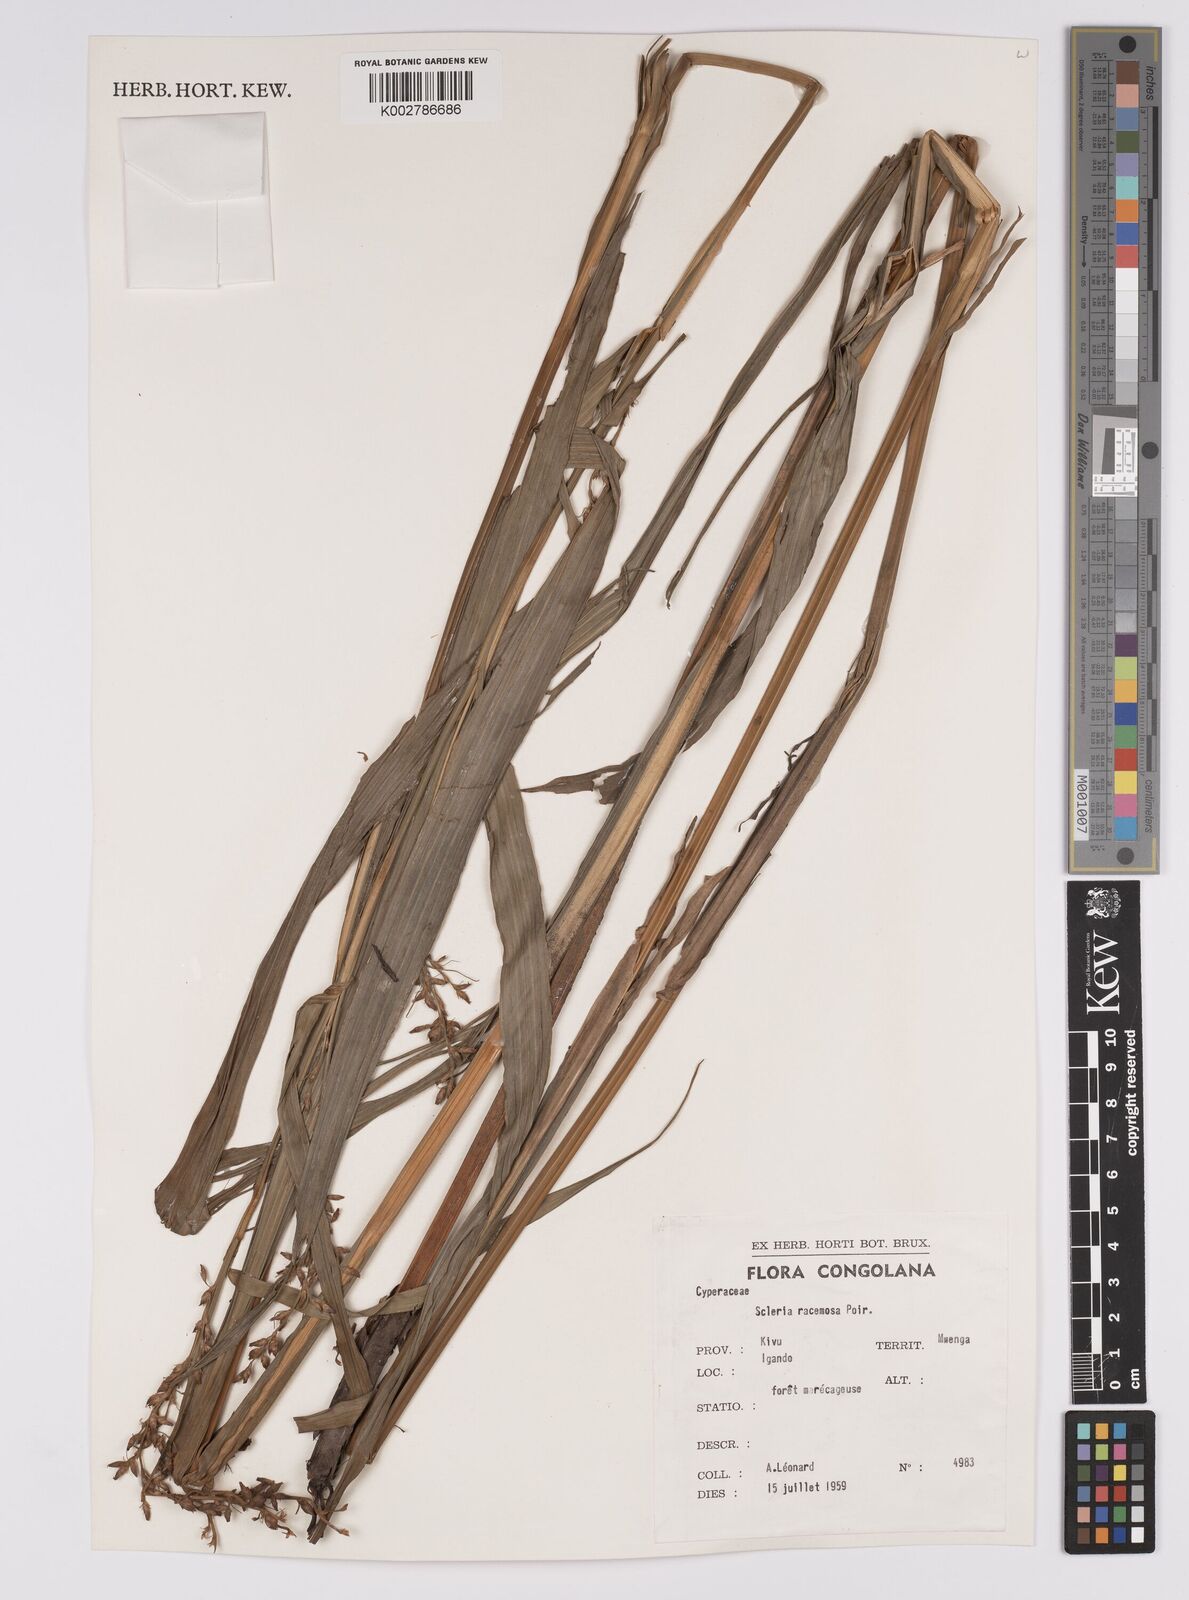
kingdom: Plantae
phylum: Tracheophyta
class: Liliopsida
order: Poales
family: Cyperaceae
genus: Scleria
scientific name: Scleria racemosa
